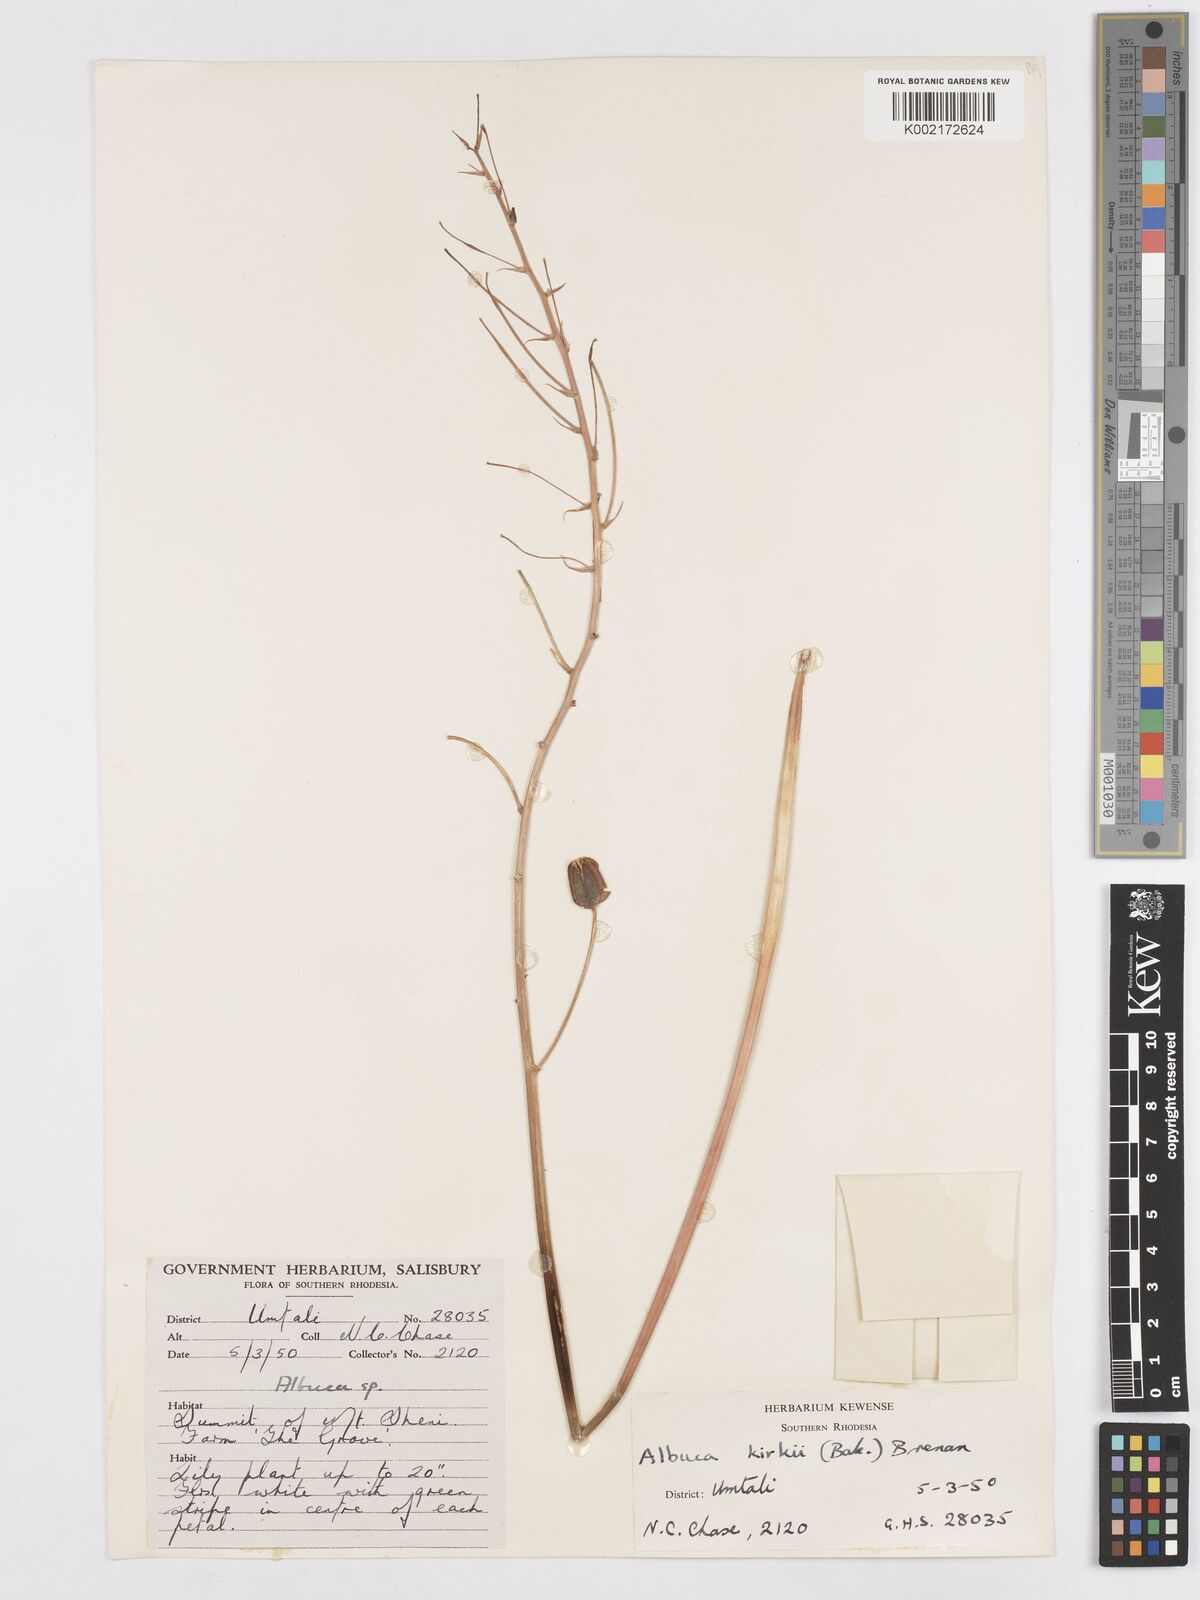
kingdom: Plantae
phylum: Tracheophyta
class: Liliopsida
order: Asparagales
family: Asparagaceae
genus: Albuca
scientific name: Albuca kirkii
